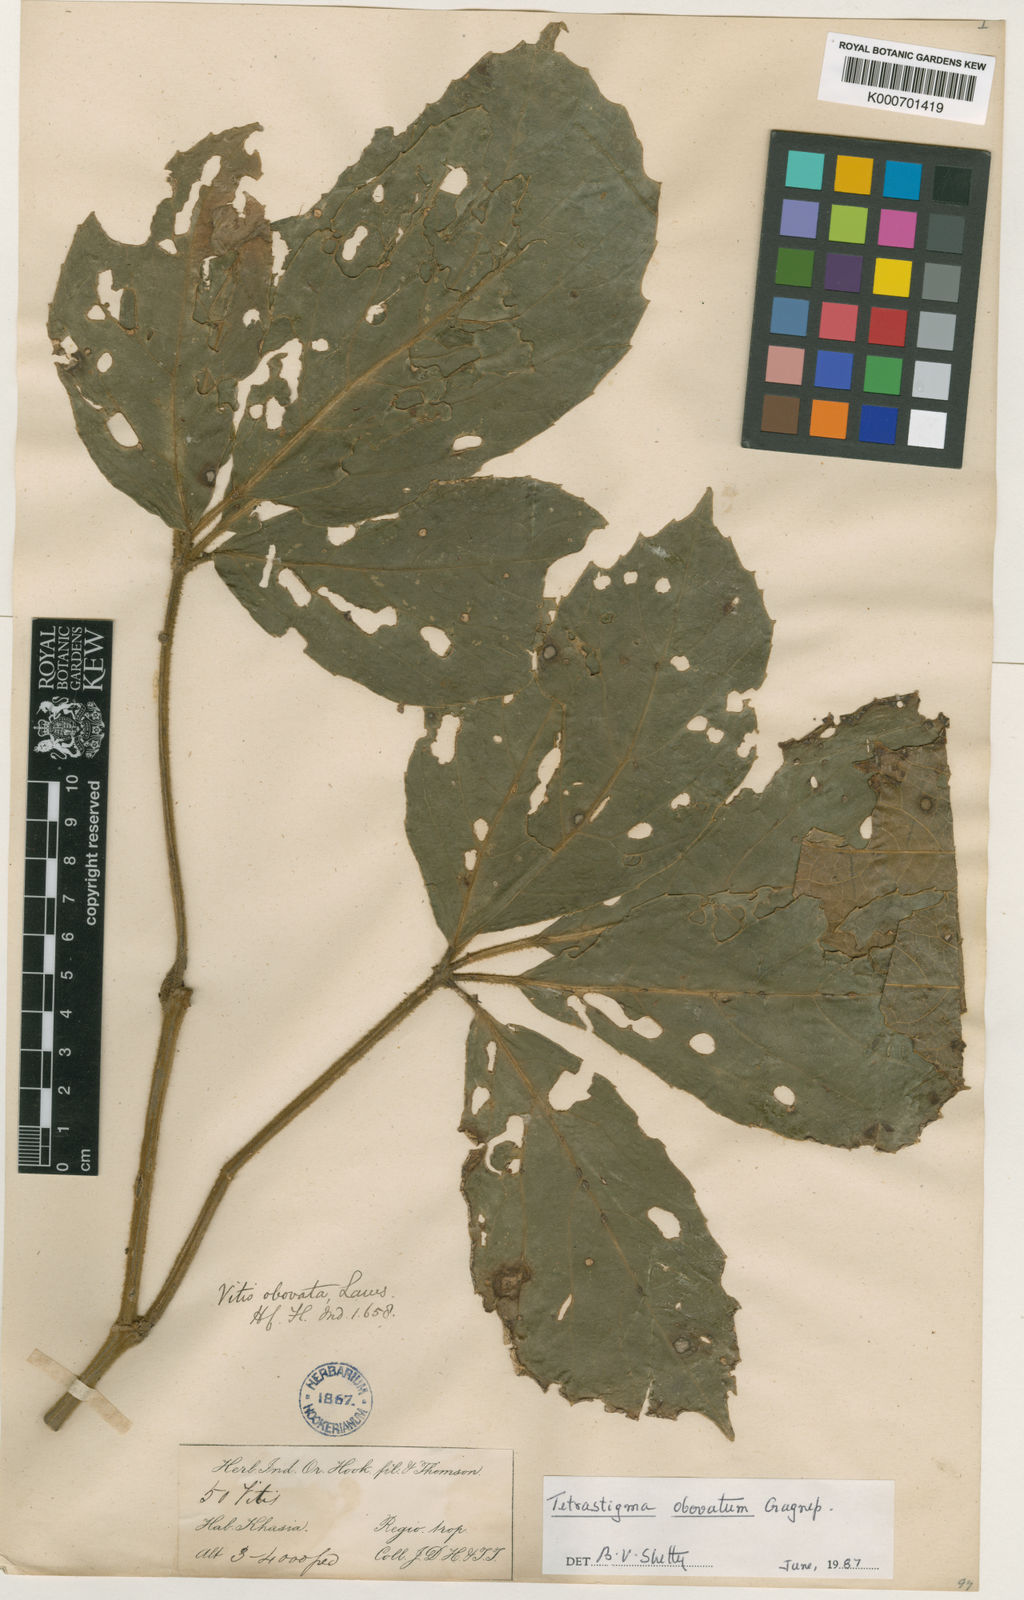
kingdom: Plantae
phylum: Tracheophyta
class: Magnoliopsida
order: Vitales
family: Vitaceae
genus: Tetrastigma
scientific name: Tetrastigma obovatum
